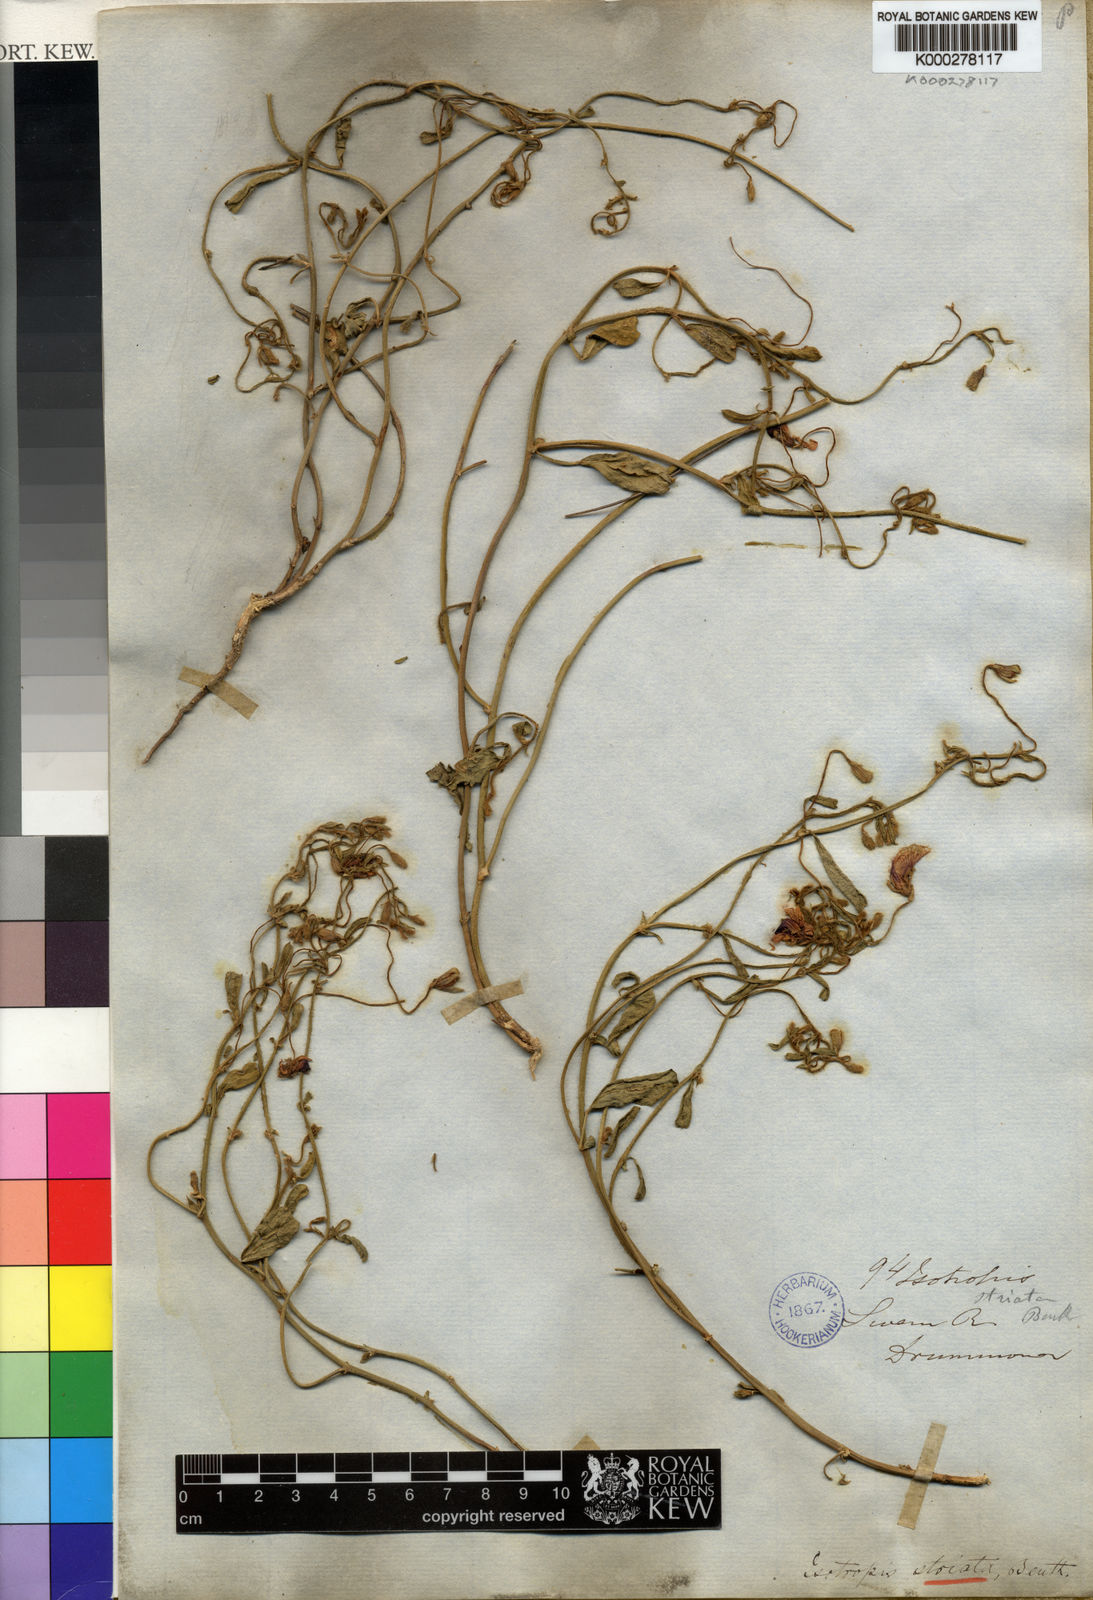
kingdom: Plantae
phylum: Tracheophyta
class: Magnoliopsida
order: Fabales
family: Fabaceae
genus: Isotropis
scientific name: Isotropis cuneifolia
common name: Granny bonnets
